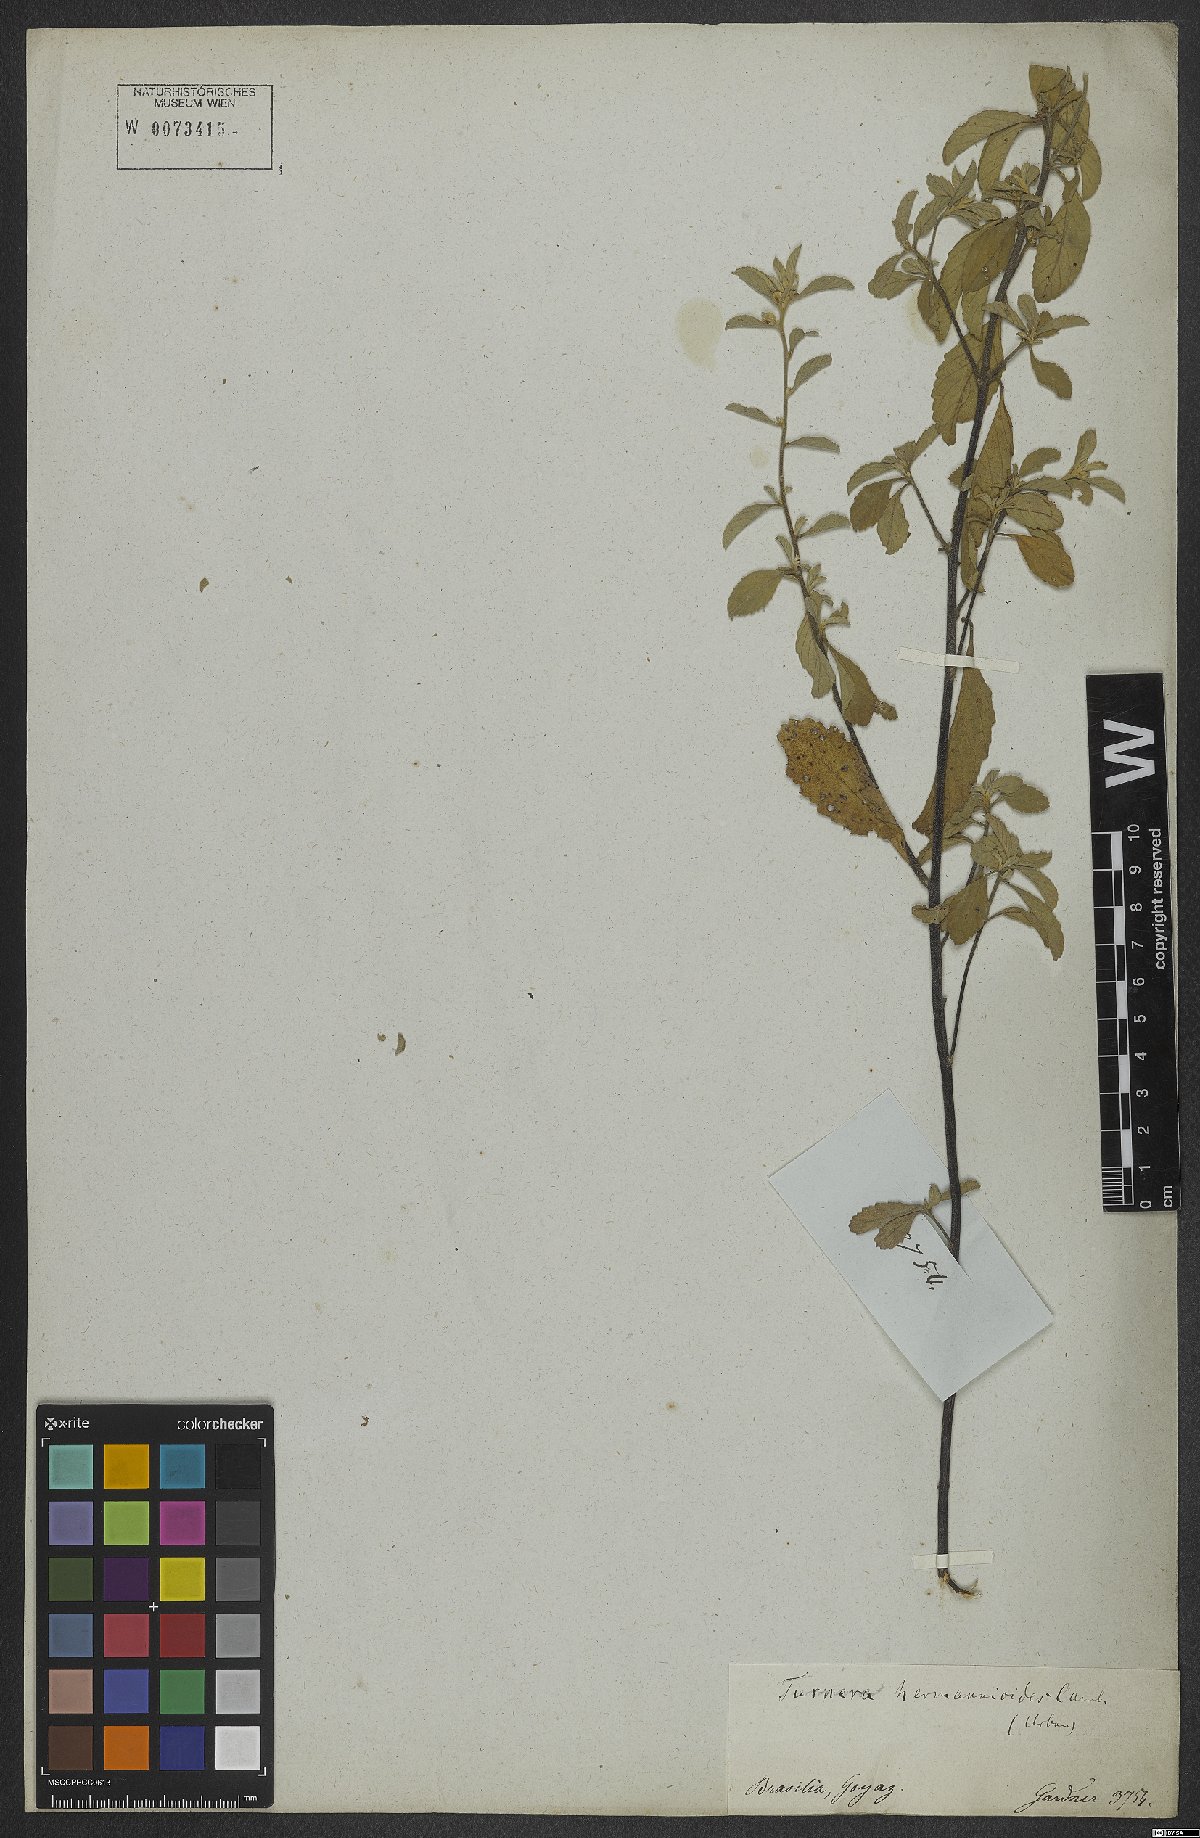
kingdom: Plantae
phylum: Tracheophyta
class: Magnoliopsida
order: Malpighiales
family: Turneraceae
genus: Turnera
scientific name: Turnera hermannioides
